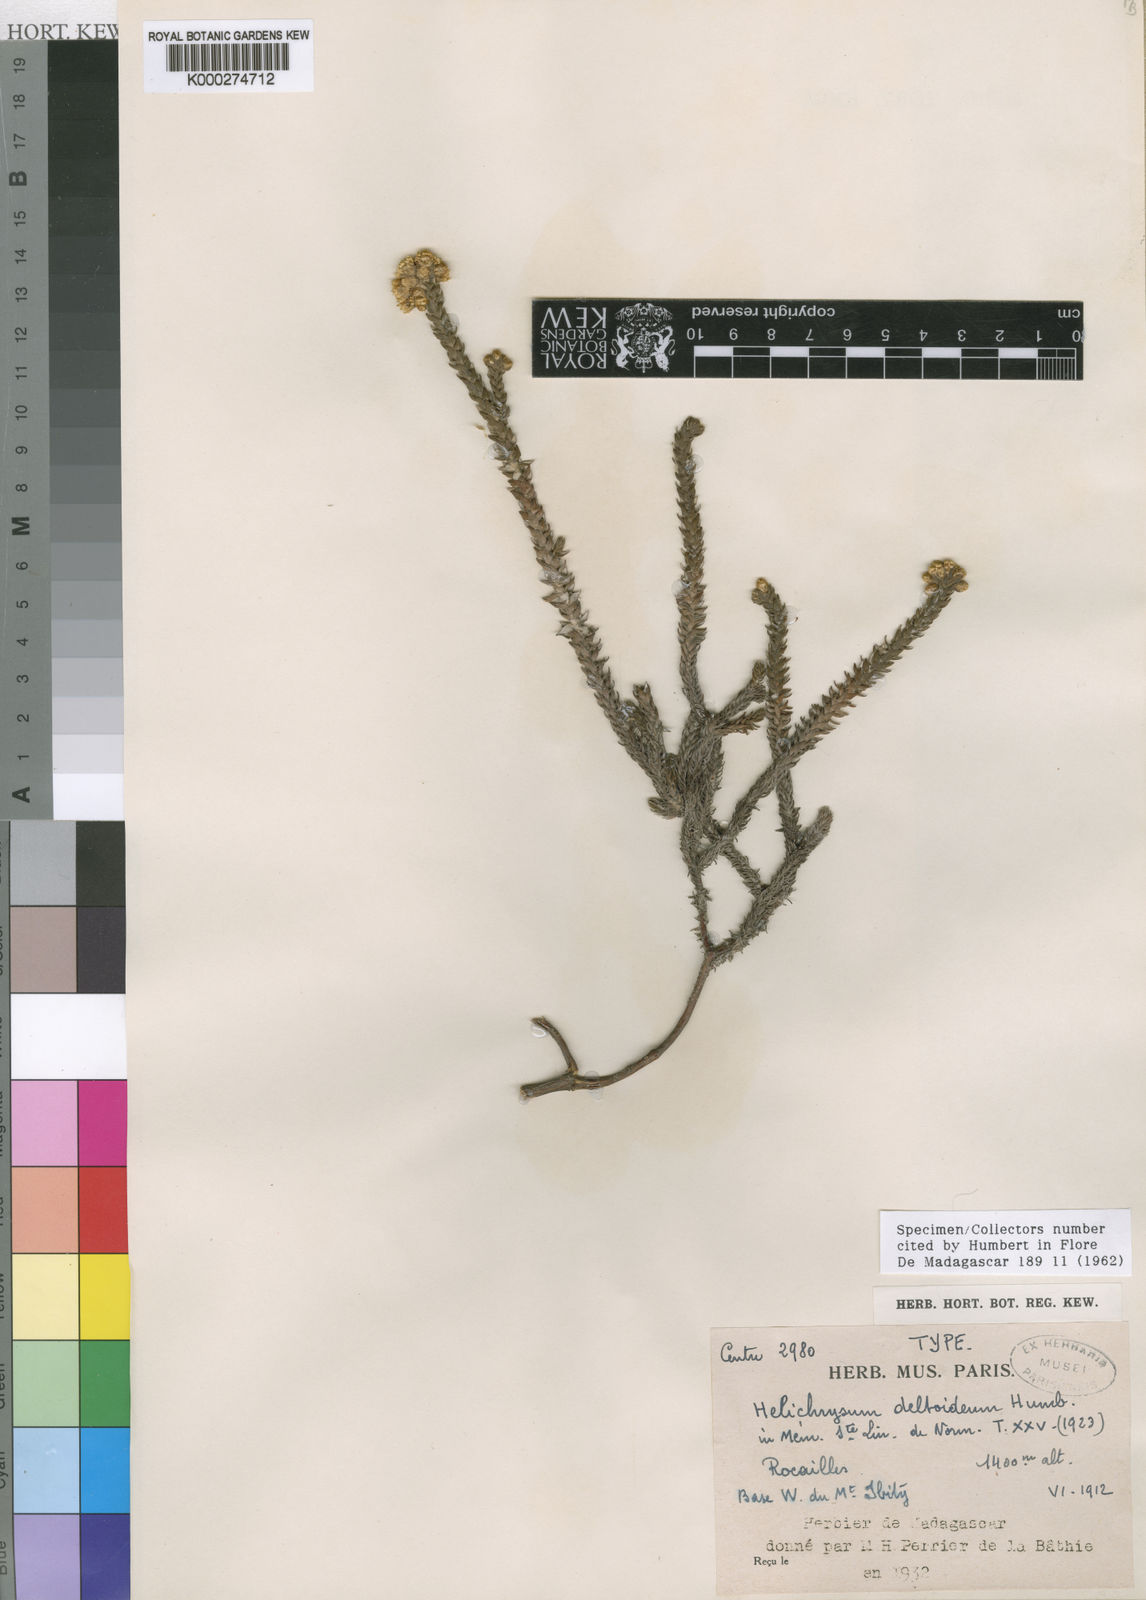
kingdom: Plantae
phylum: Tracheophyta
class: Magnoliopsida
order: Asterales
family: Asteraceae
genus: Helichrysum
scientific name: Helichrysum deltoideum
